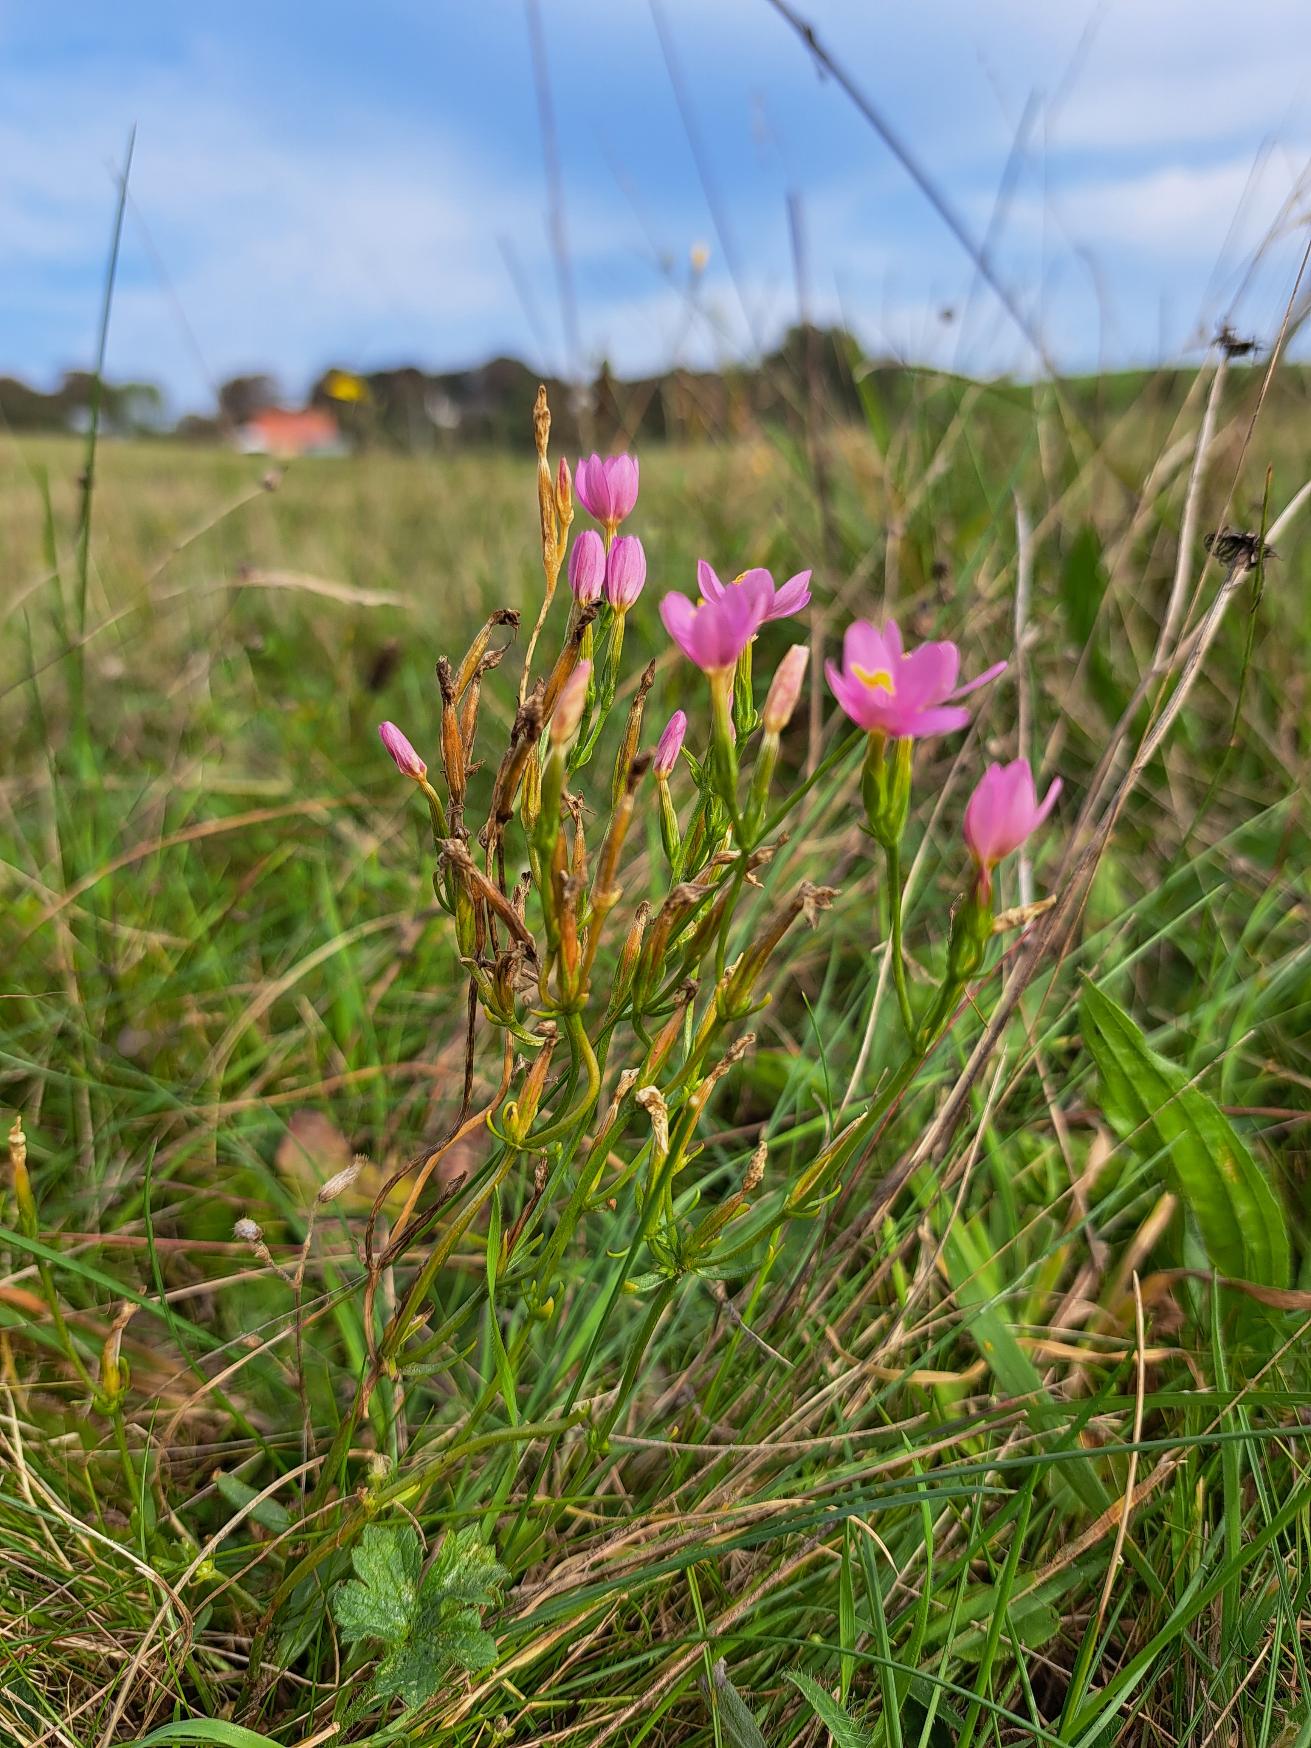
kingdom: Plantae
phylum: Tracheophyta
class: Magnoliopsida
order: Gentianales
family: Gentianaceae
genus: Centaurium
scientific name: Centaurium erythraea
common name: Mark-tusindgylden
